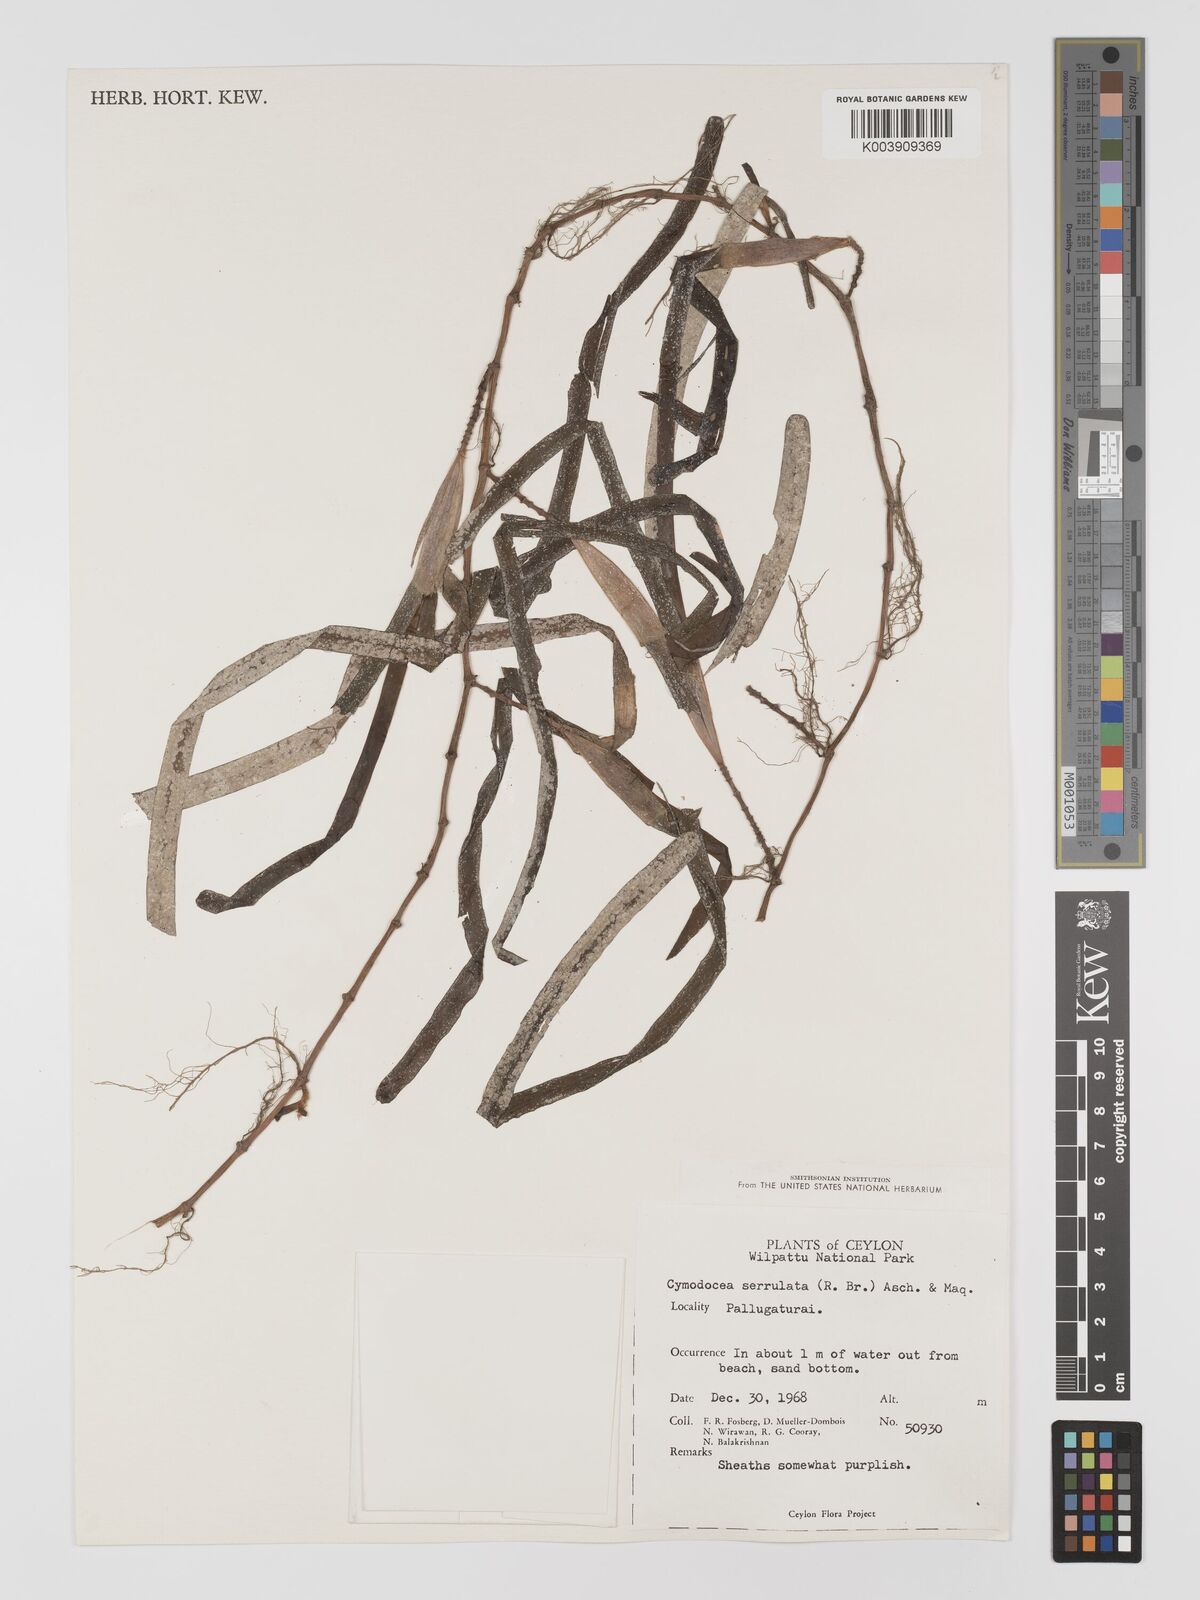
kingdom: Plantae
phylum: Tracheophyta
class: Liliopsida
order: Alismatales
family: Cymodoceaceae
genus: Oceana
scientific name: Oceana serrulata
